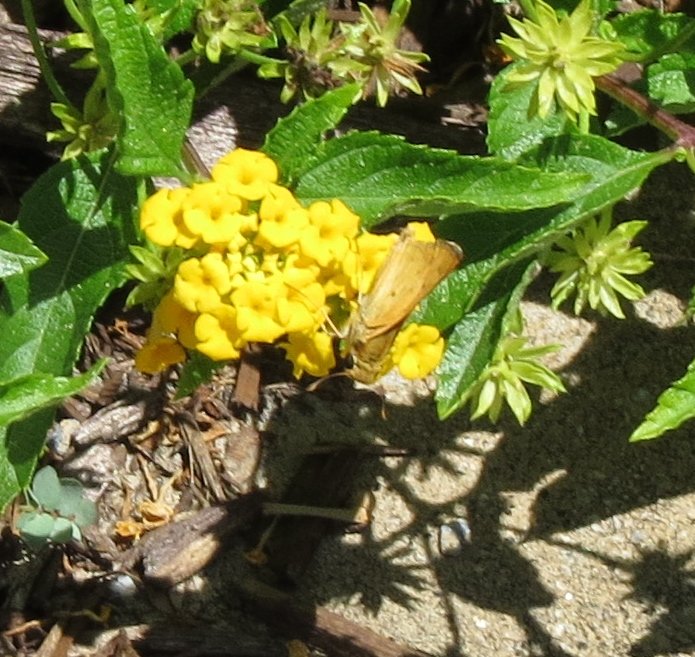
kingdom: Animalia
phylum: Arthropoda
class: Insecta
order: Lepidoptera
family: Hesperiidae
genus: Hylephila
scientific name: Hylephila phyleus
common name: Fiery Skipper
